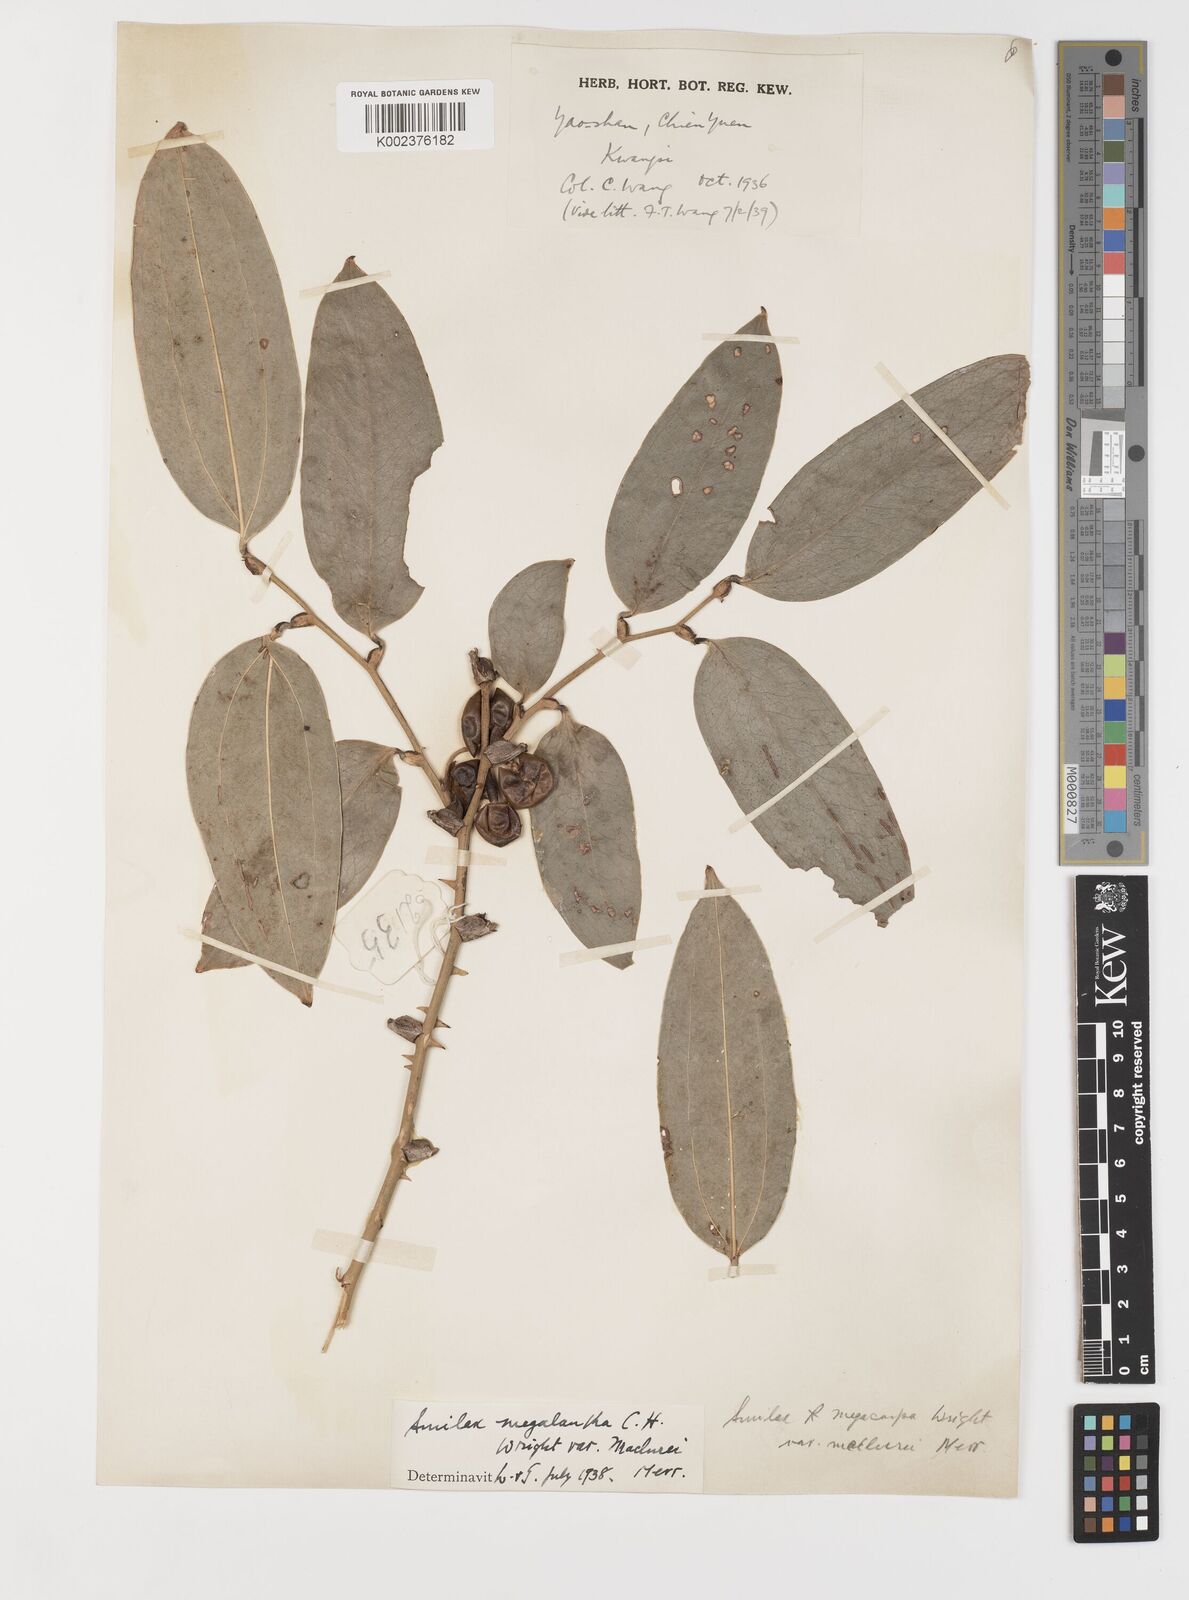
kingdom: Plantae
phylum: Tracheophyta
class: Liliopsida
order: Liliales
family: Smilacaceae
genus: Smilax
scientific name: Smilax chingii
